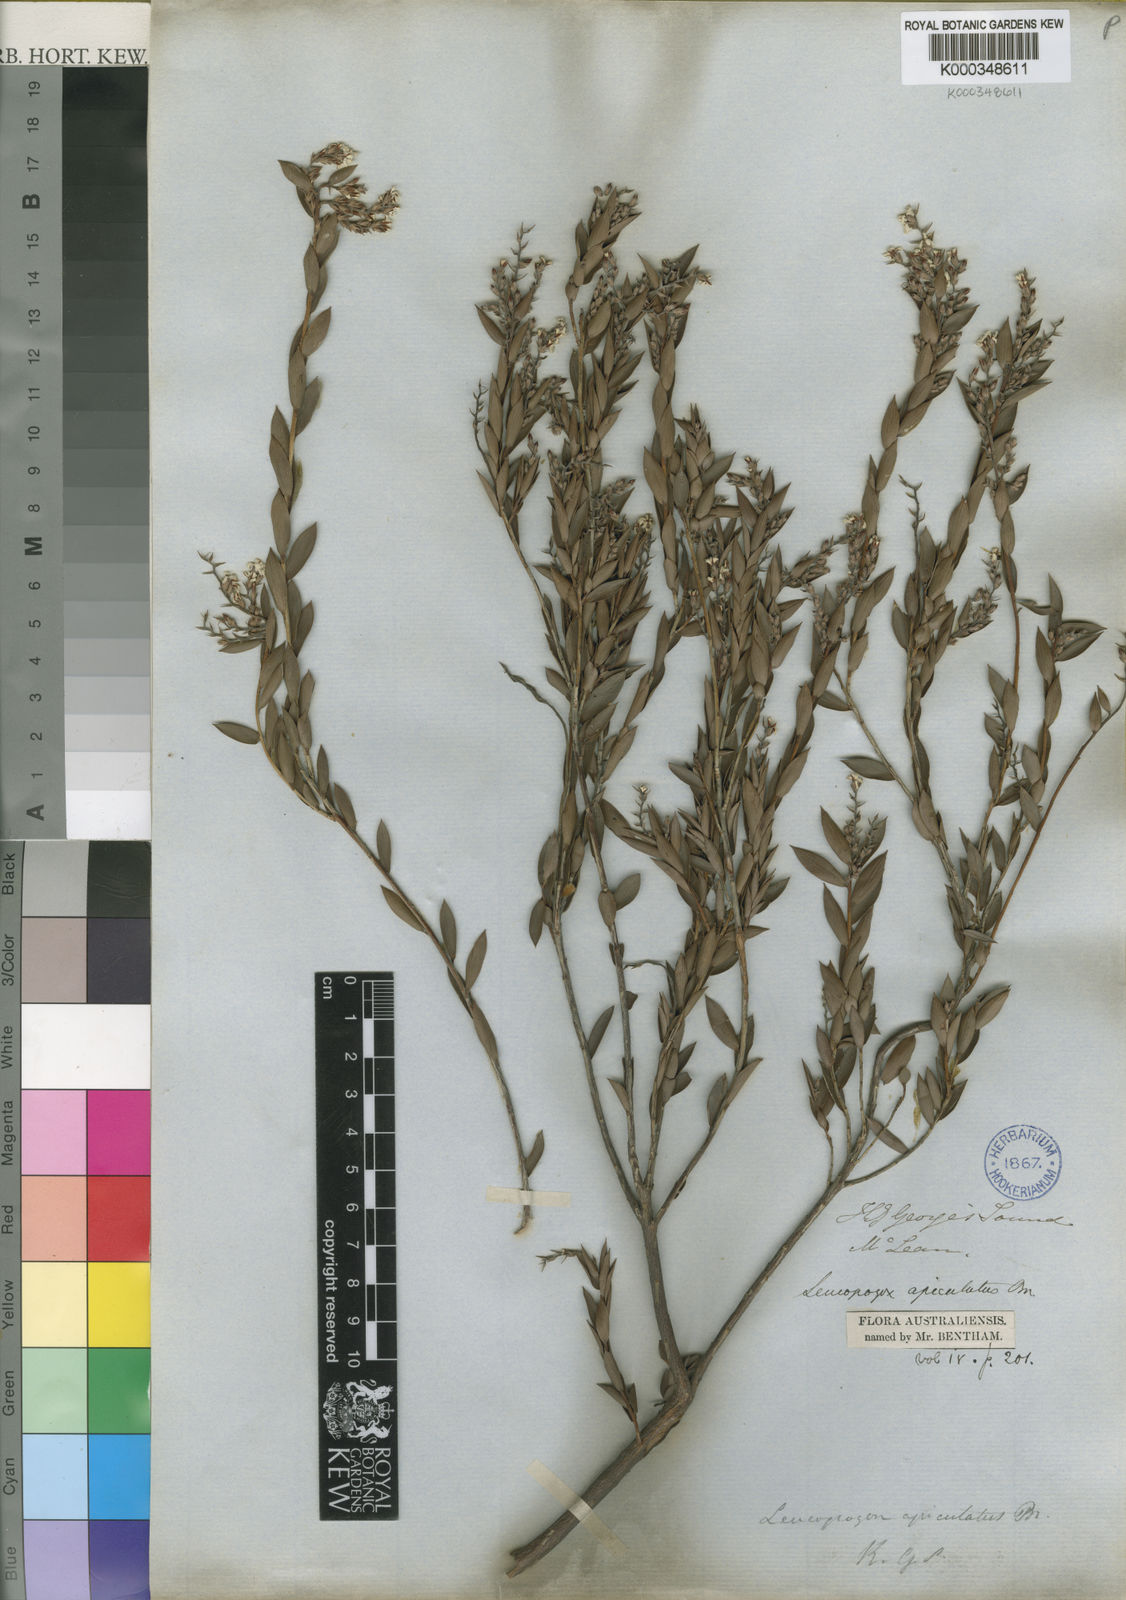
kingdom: Plantae
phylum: Tracheophyta
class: Magnoliopsida
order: Ericales
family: Ericaceae
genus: Leucopogon
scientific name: Leucopogon apiculatus
